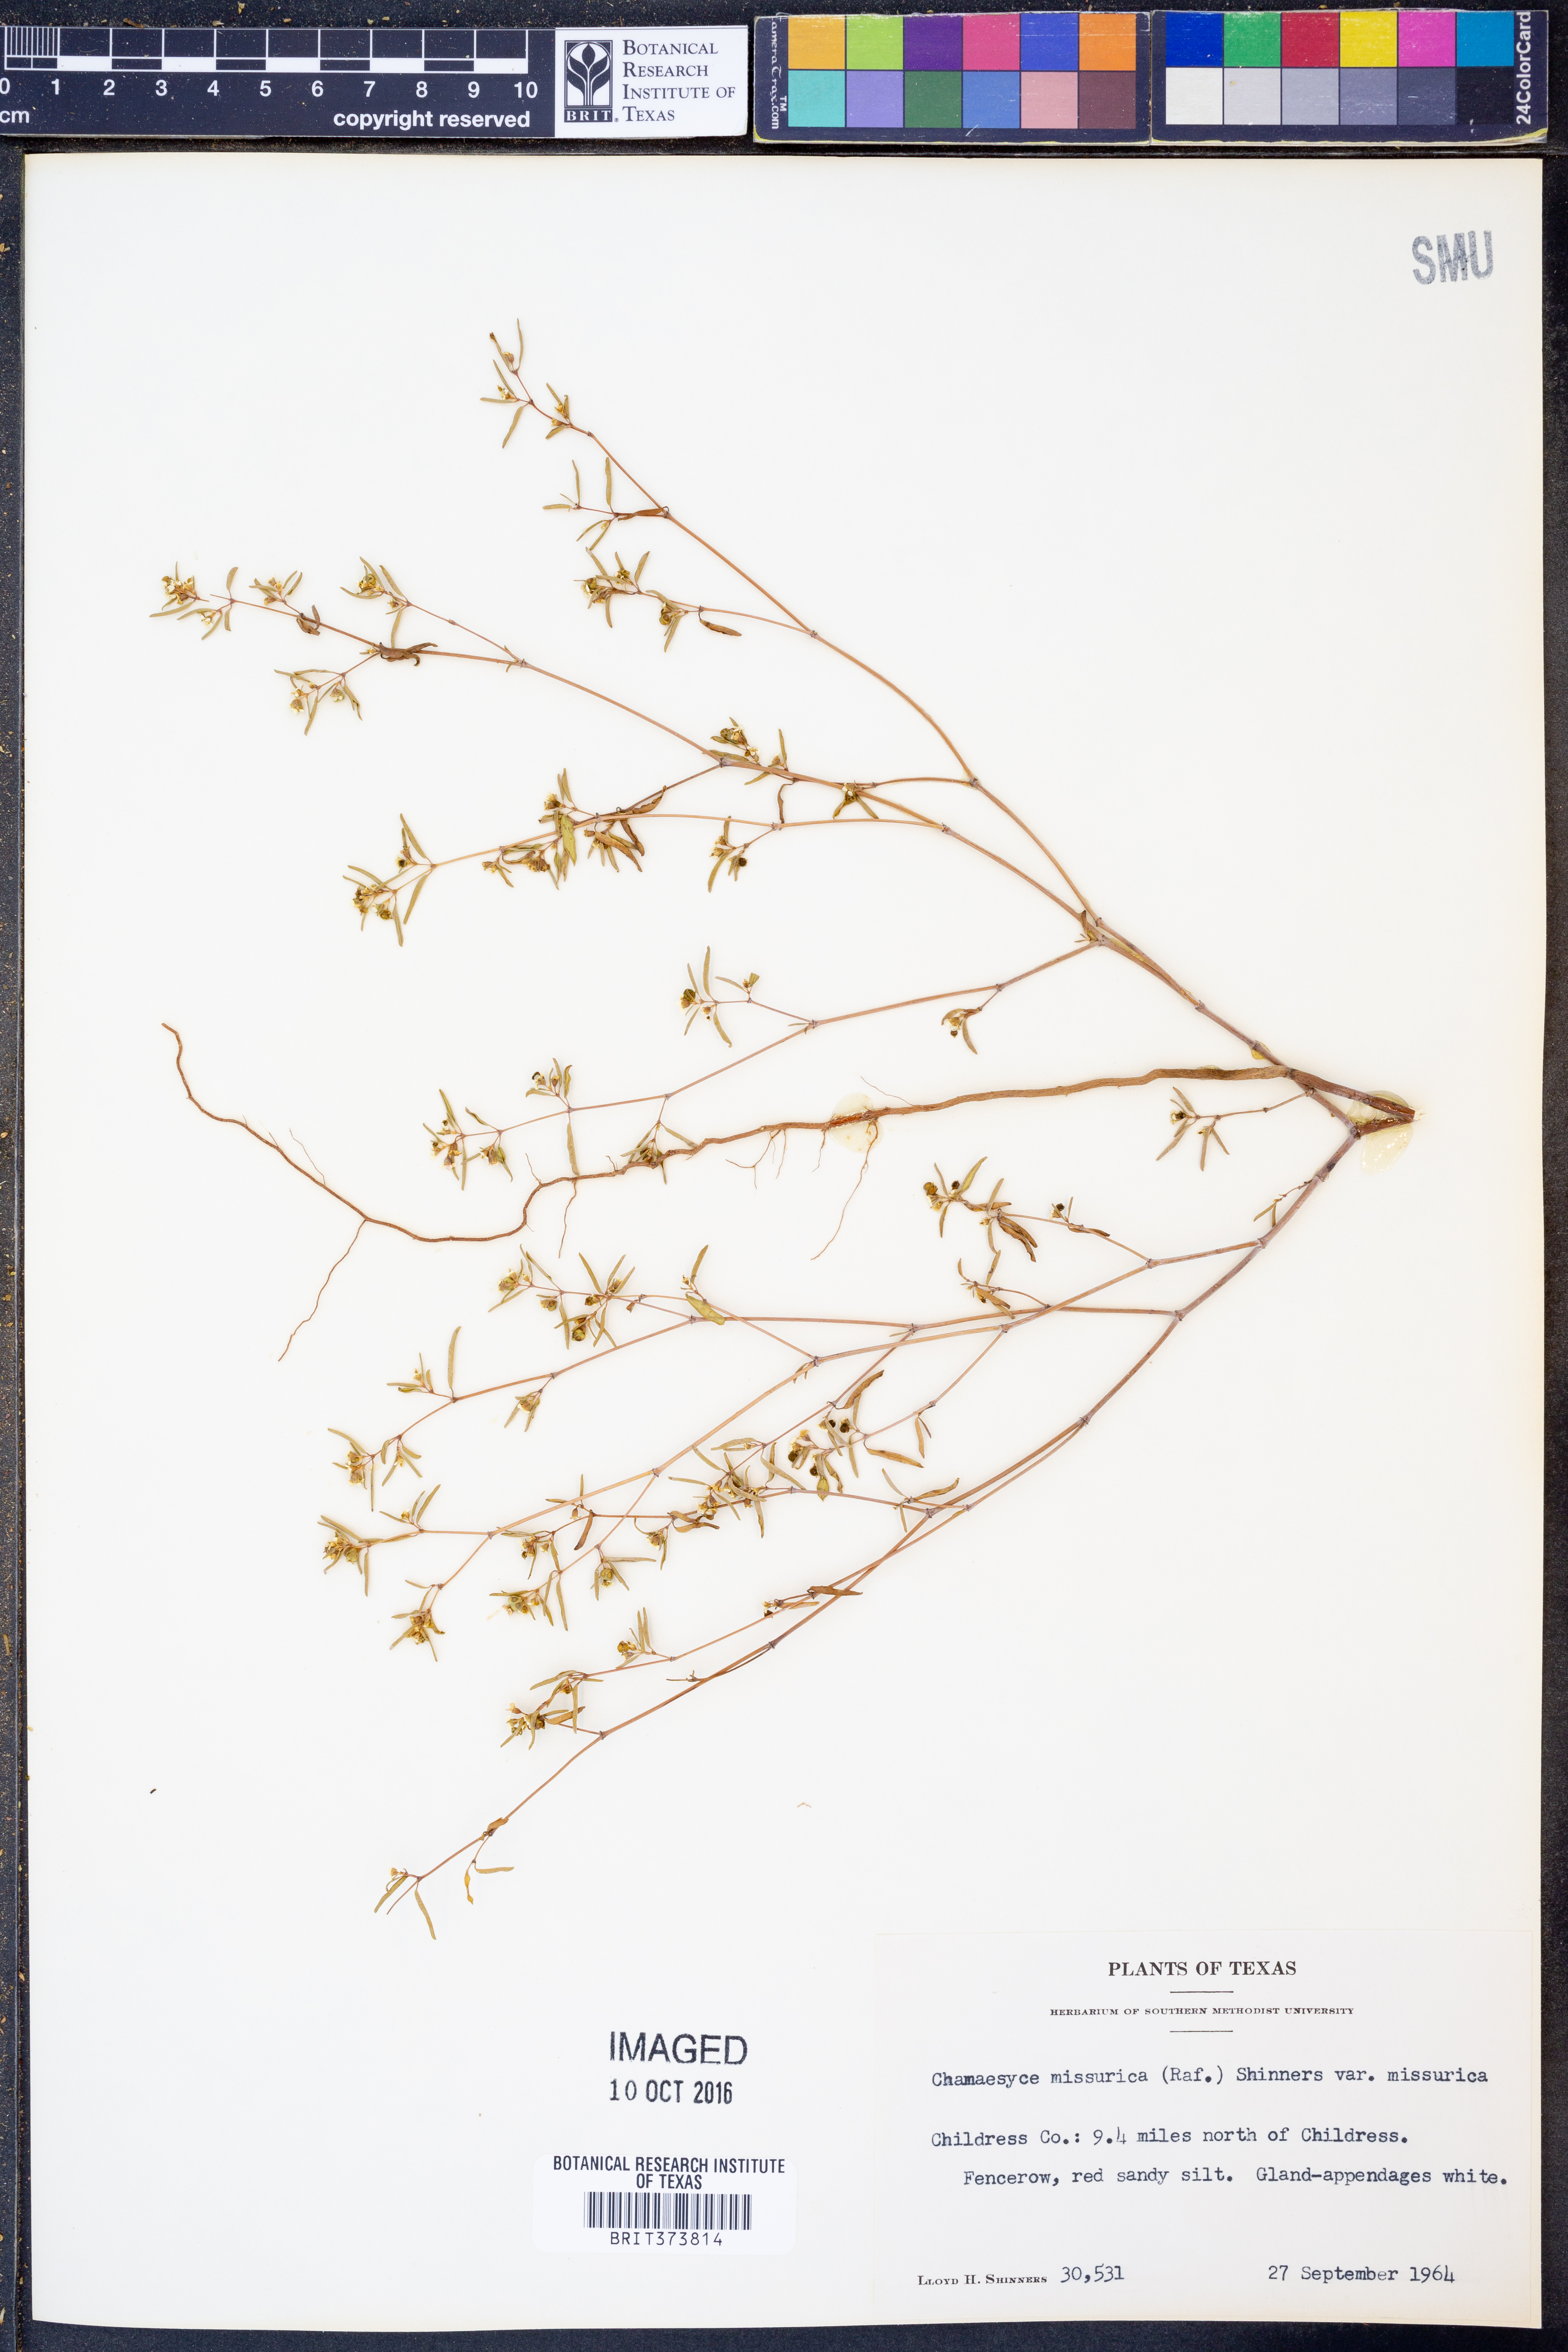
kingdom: Plantae
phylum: Tracheophyta
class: Magnoliopsida
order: Malpighiales
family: Euphorbiaceae
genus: Euphorbia
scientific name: Euphorbia missurica
